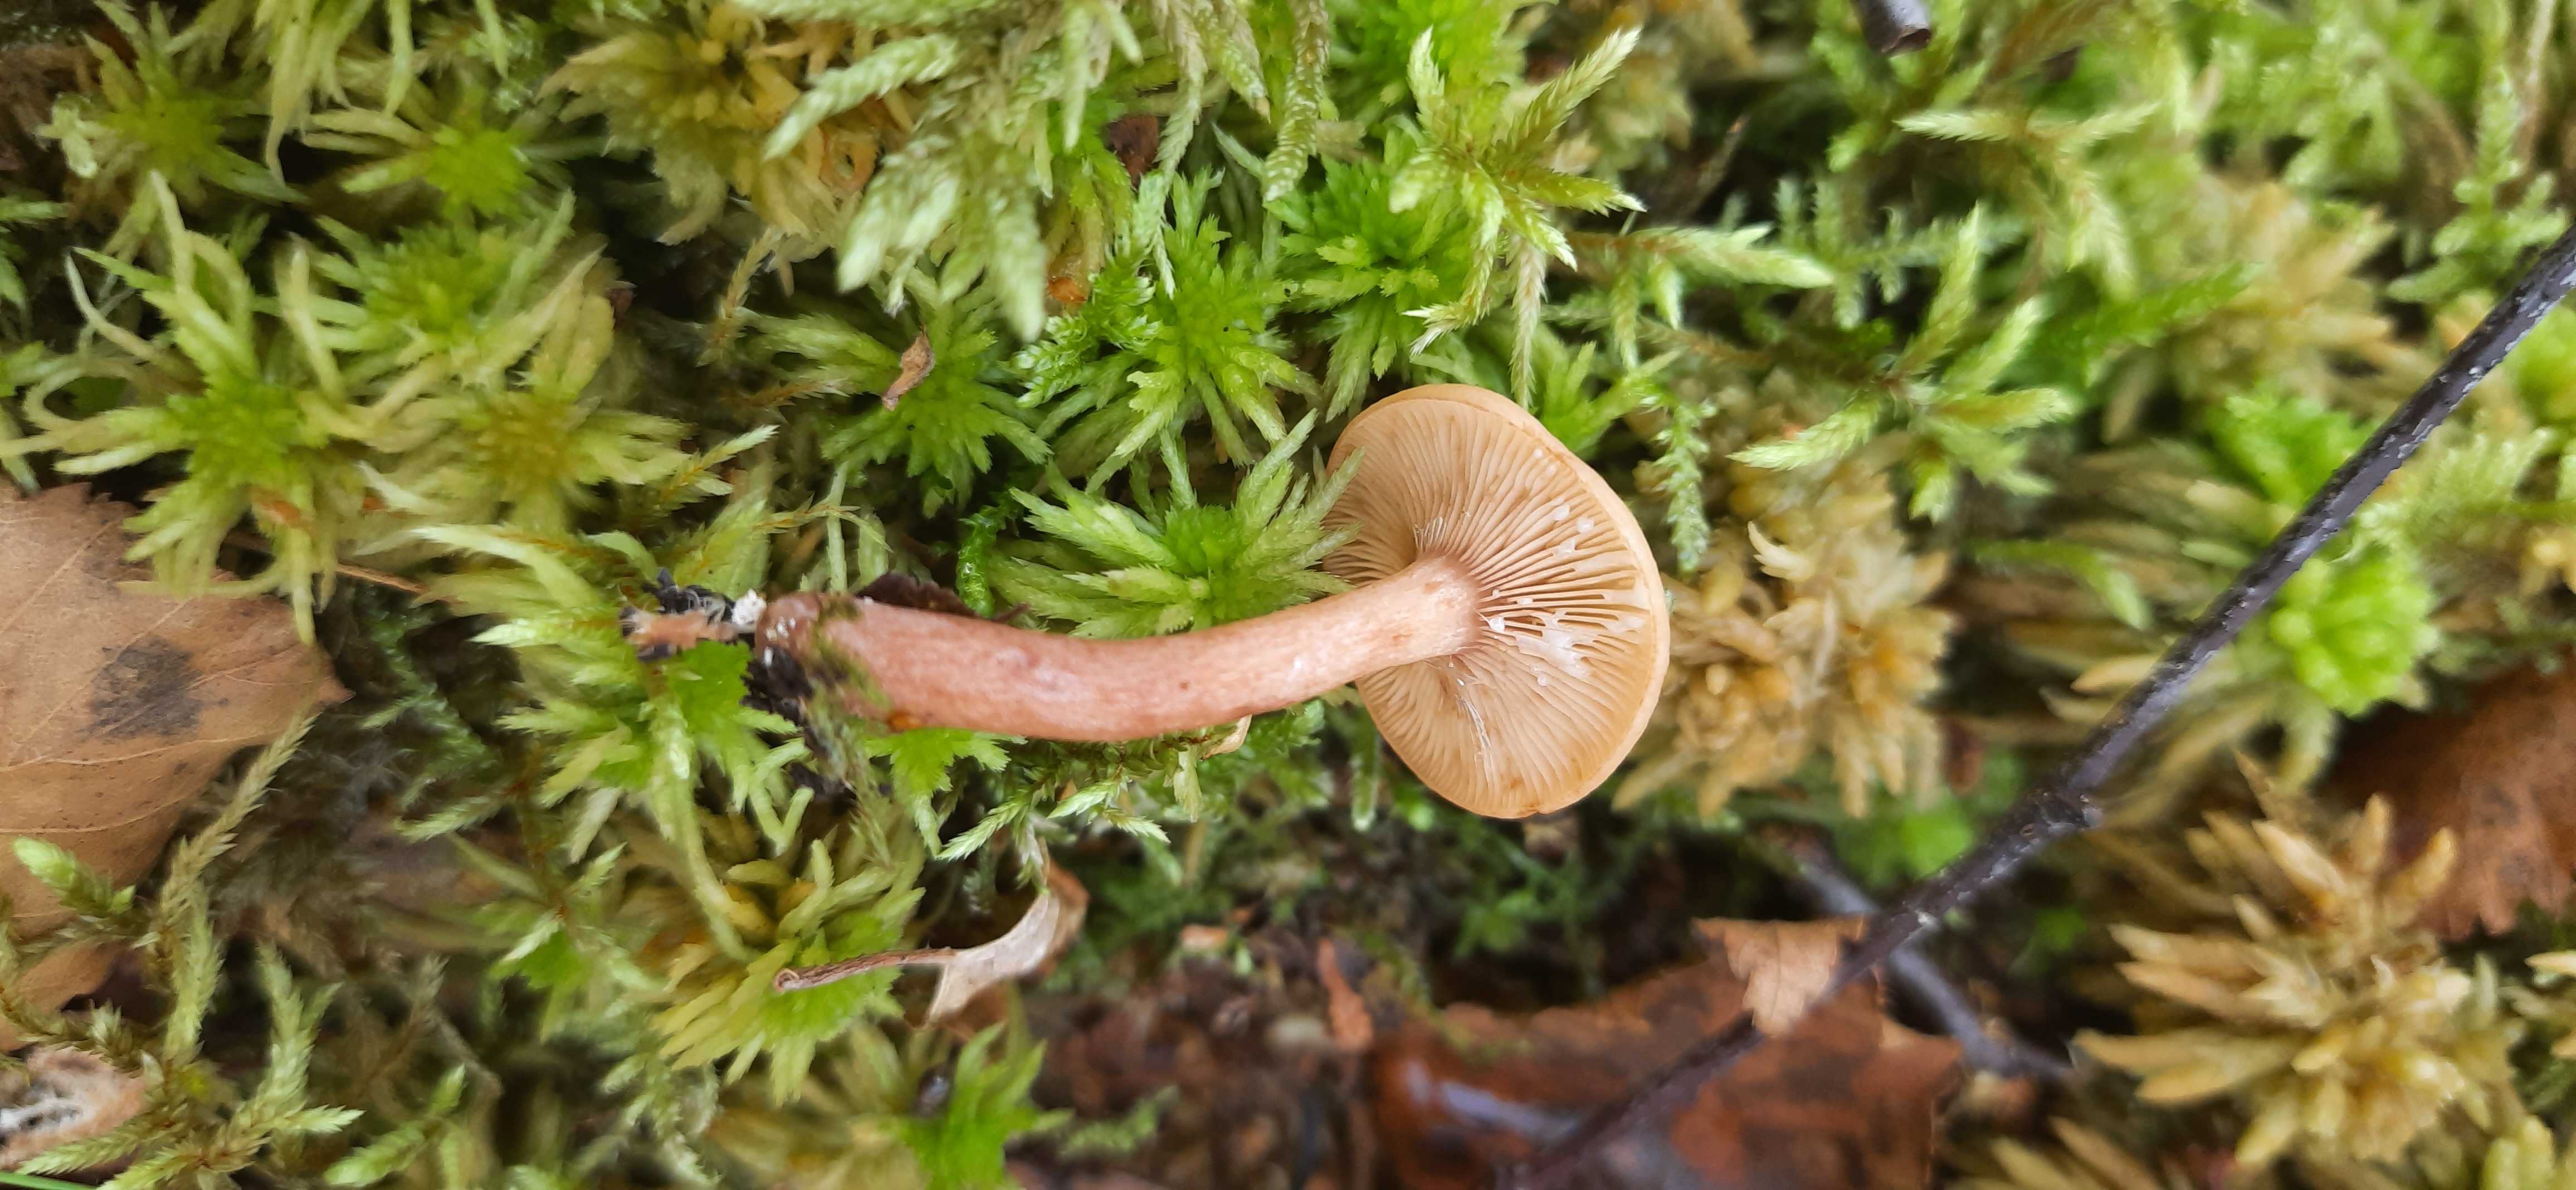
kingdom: Fungi
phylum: Basidiomycota
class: Agaricomycetes
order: Russulales
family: Russulaceae
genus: Lactarius
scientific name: Lactarius tabidus
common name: rynket mælkehat
